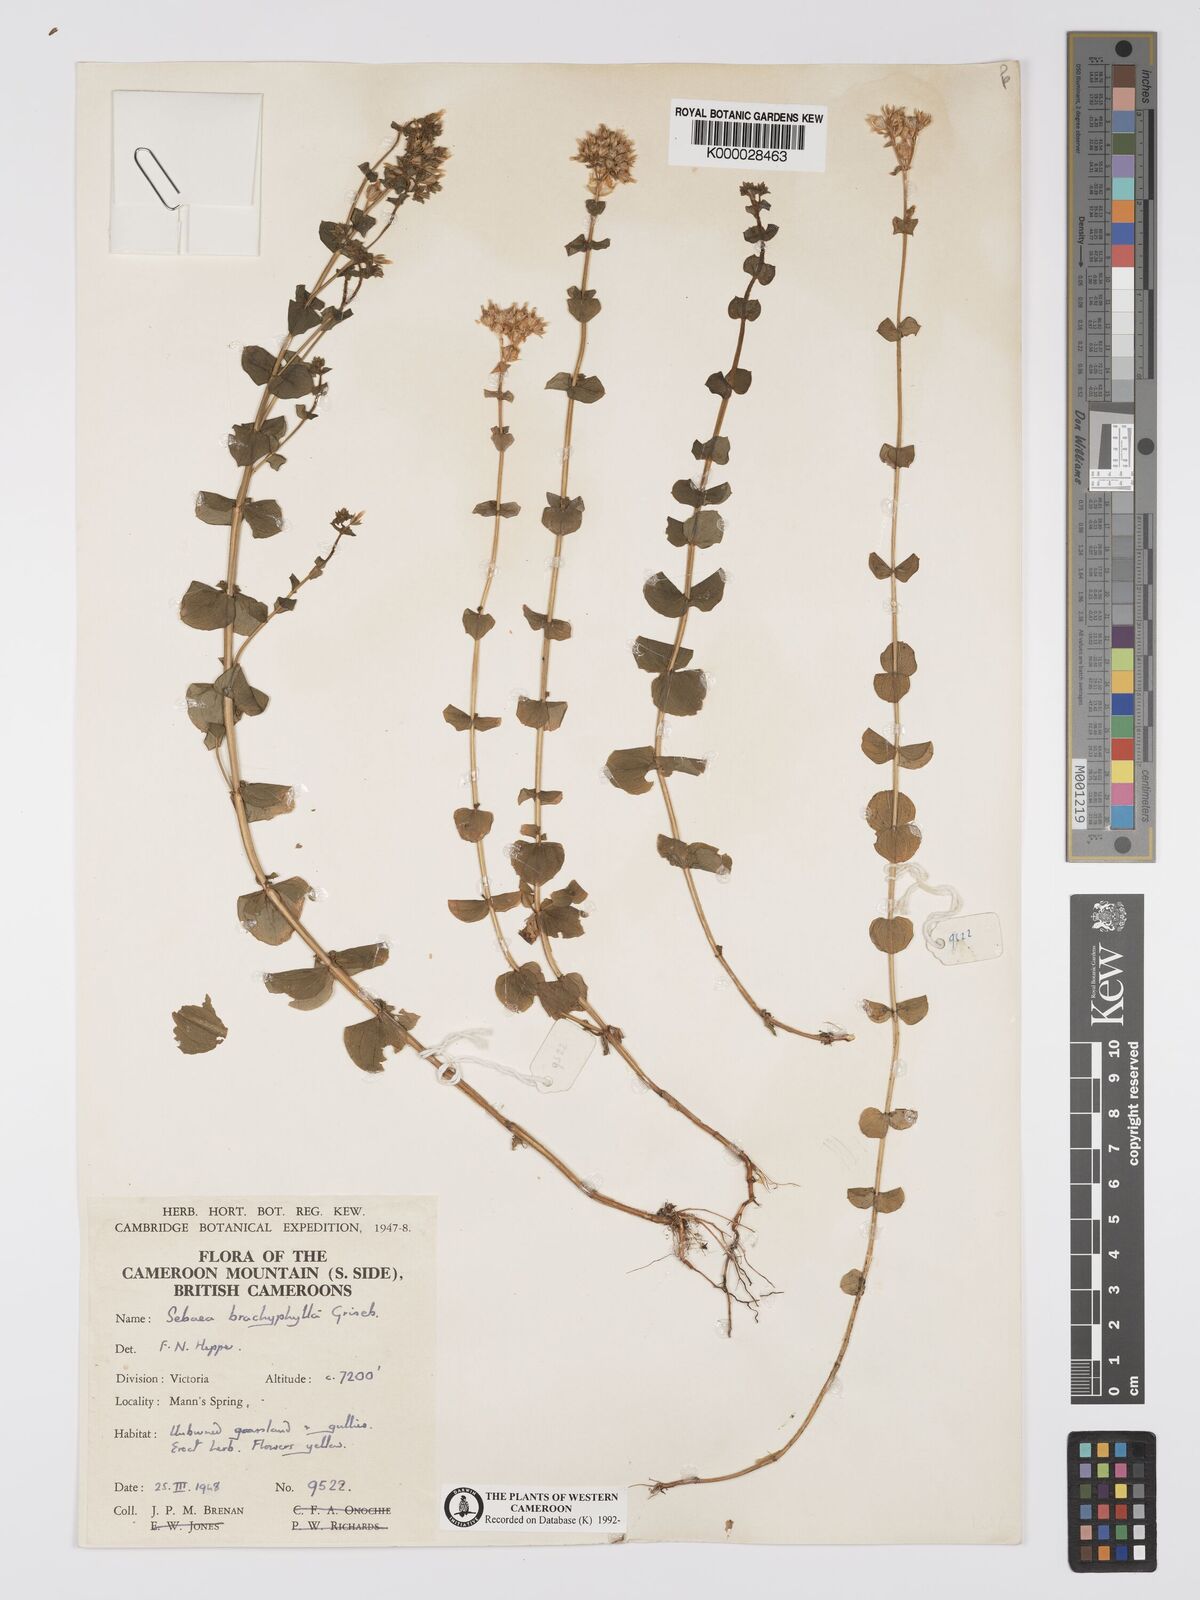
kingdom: Plantae
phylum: Tracheophyta
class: Magnoliopsida
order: Gentianales
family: Gentianaceae
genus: Sebaea
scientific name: Sebaea brachyphylla
